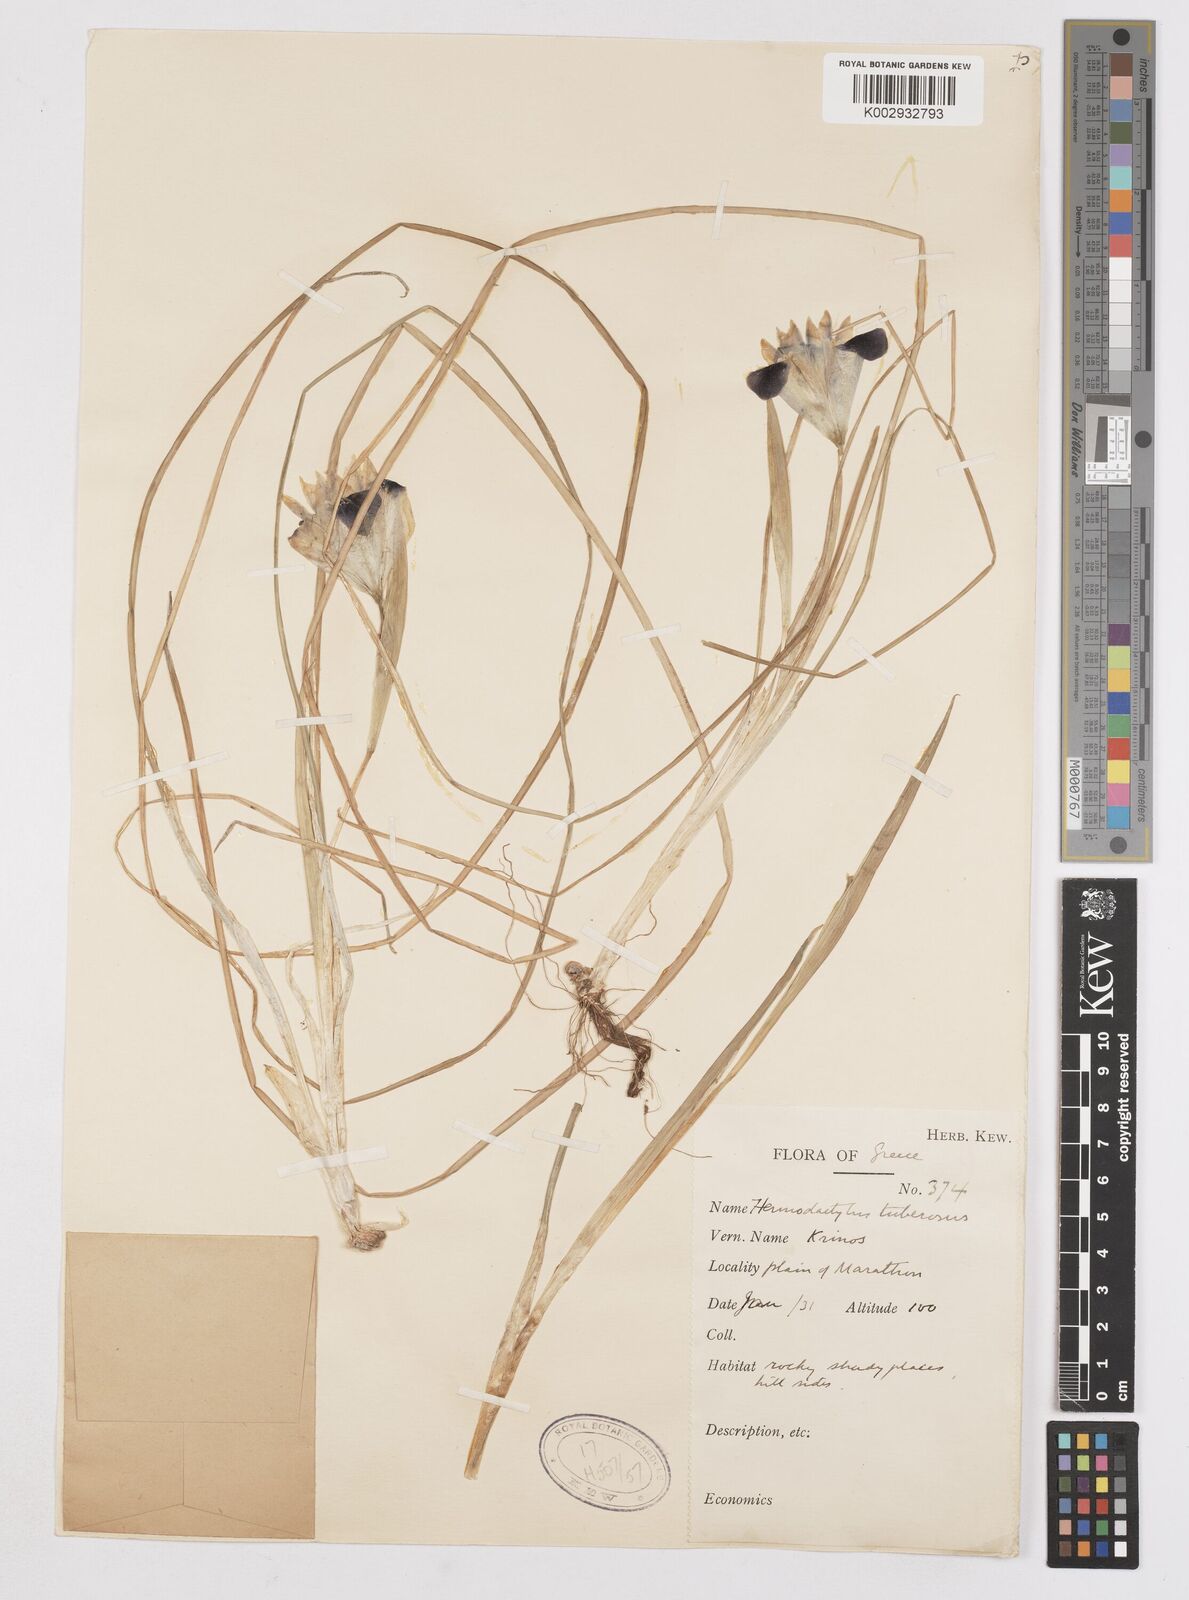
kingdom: Plantae
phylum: Tracheophyta
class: Liliopsida
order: Asparagales
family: Iridaceae
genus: Iris
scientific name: Iris tuberosa
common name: Snake's-head iris
